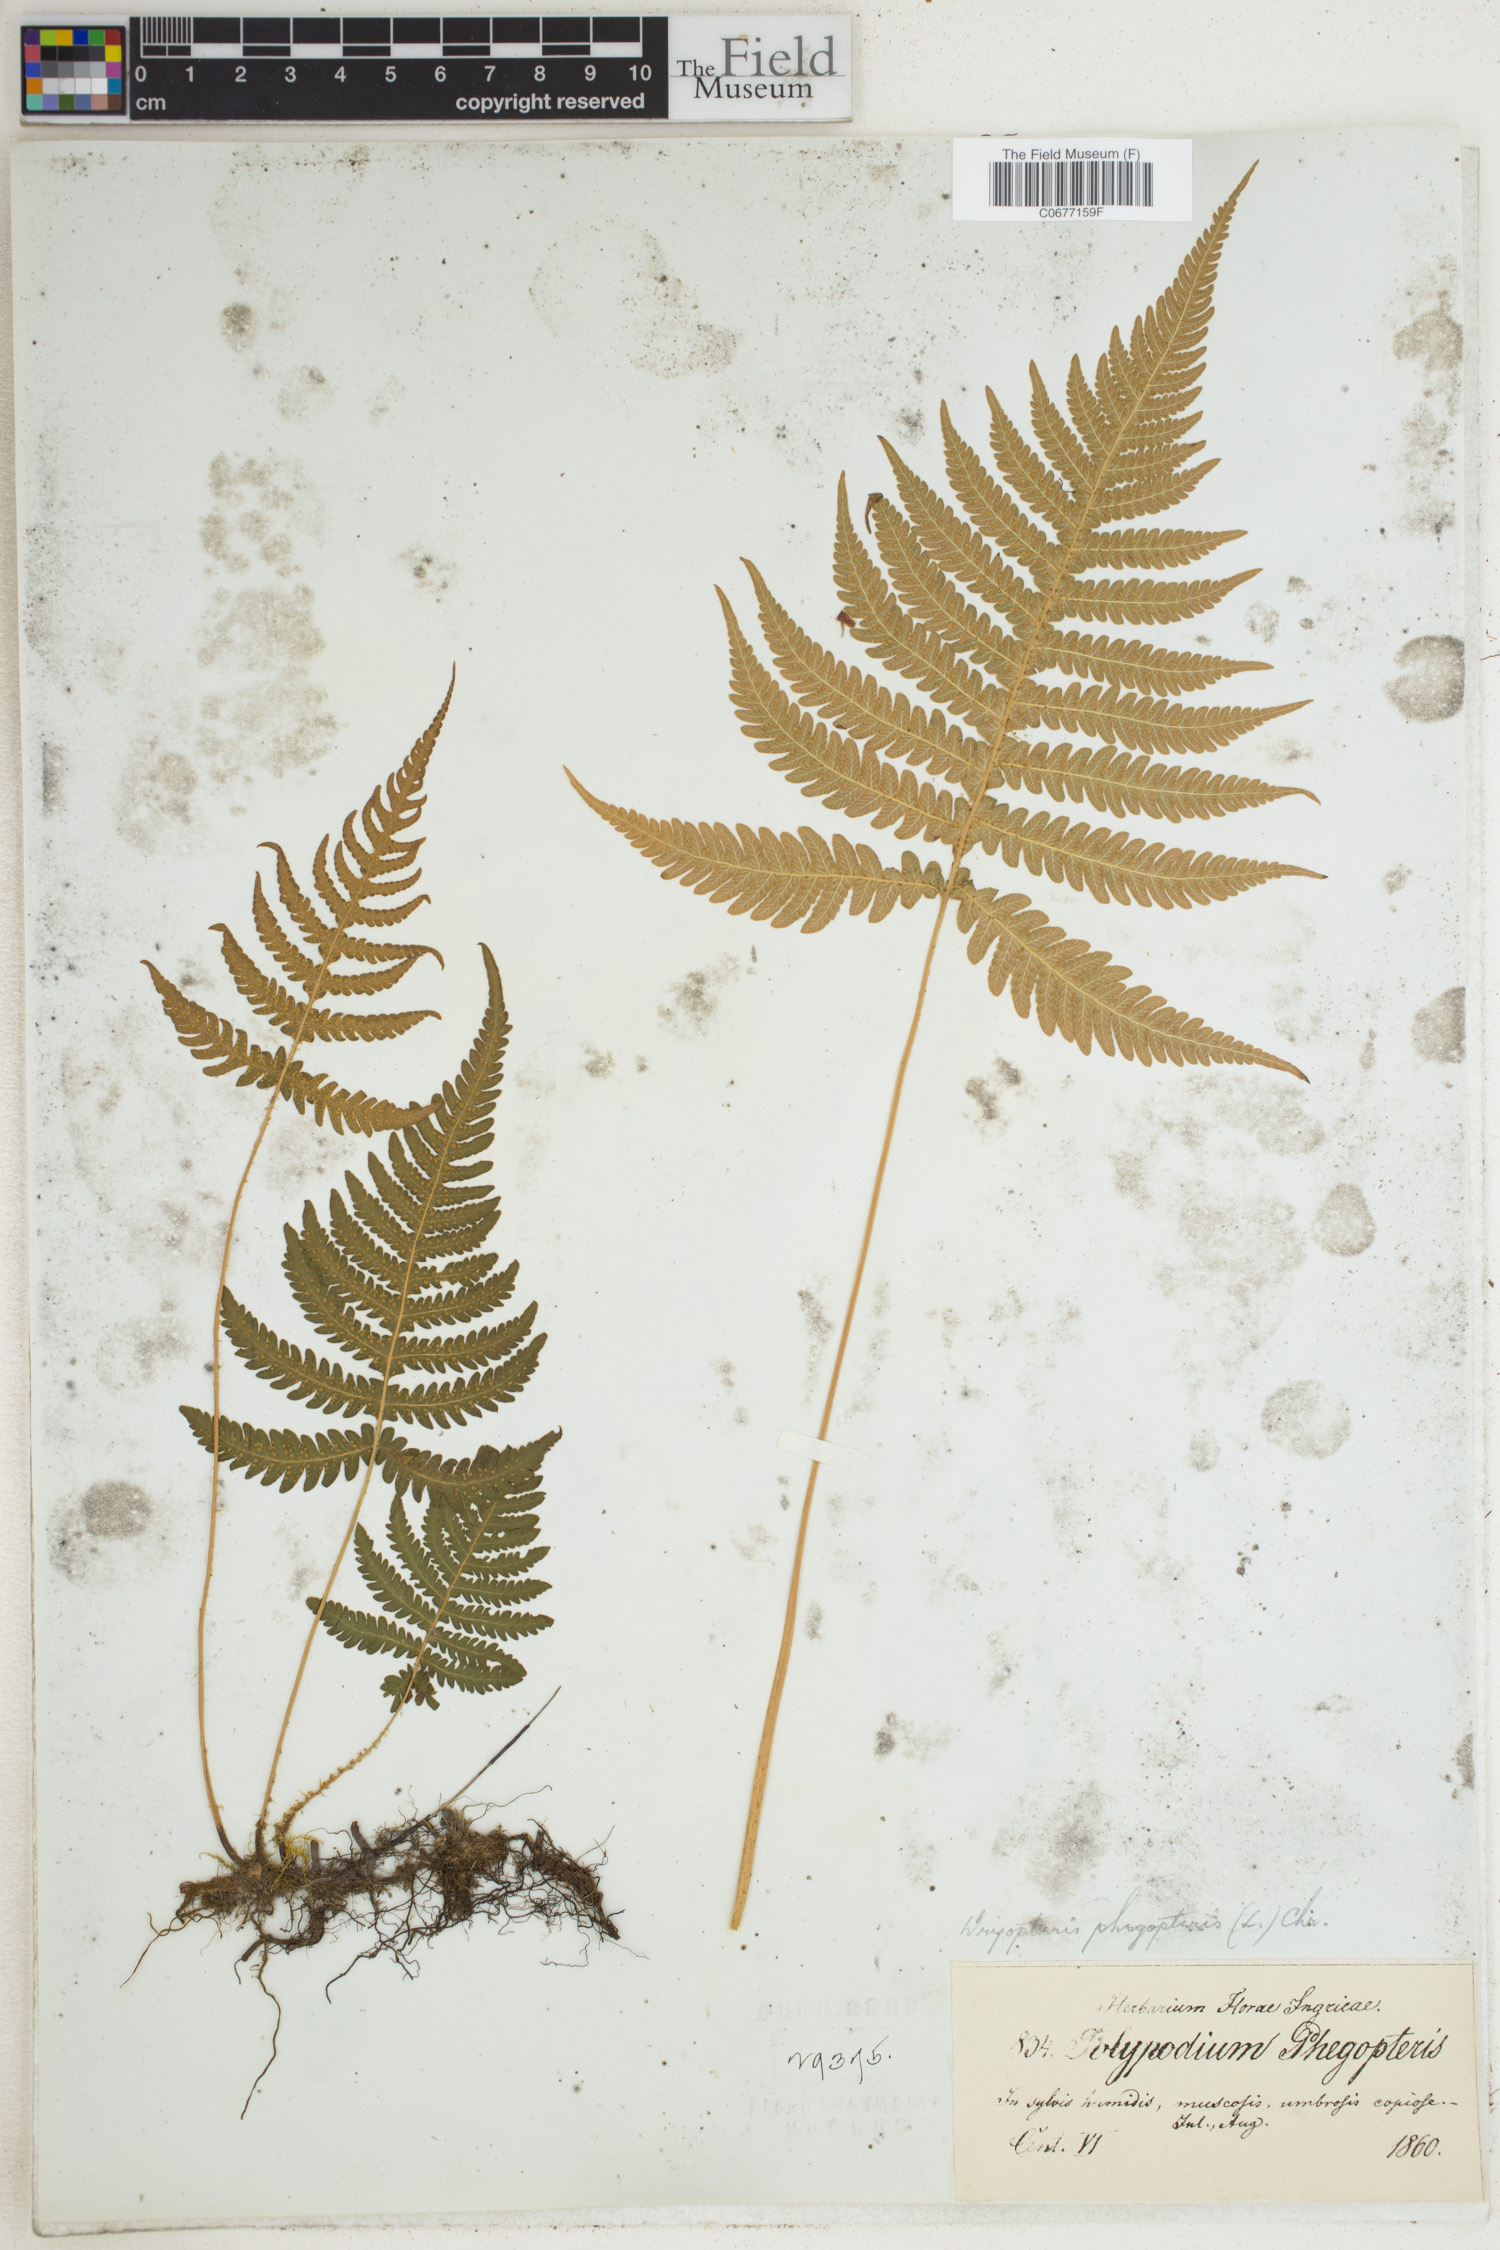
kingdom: Plantae
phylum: Tracheophyta
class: Polypodiopsida
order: Polypodiales
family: Thelypteridaceae
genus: Phegopteris
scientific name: Phegopteris connectilis
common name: Beech fern
